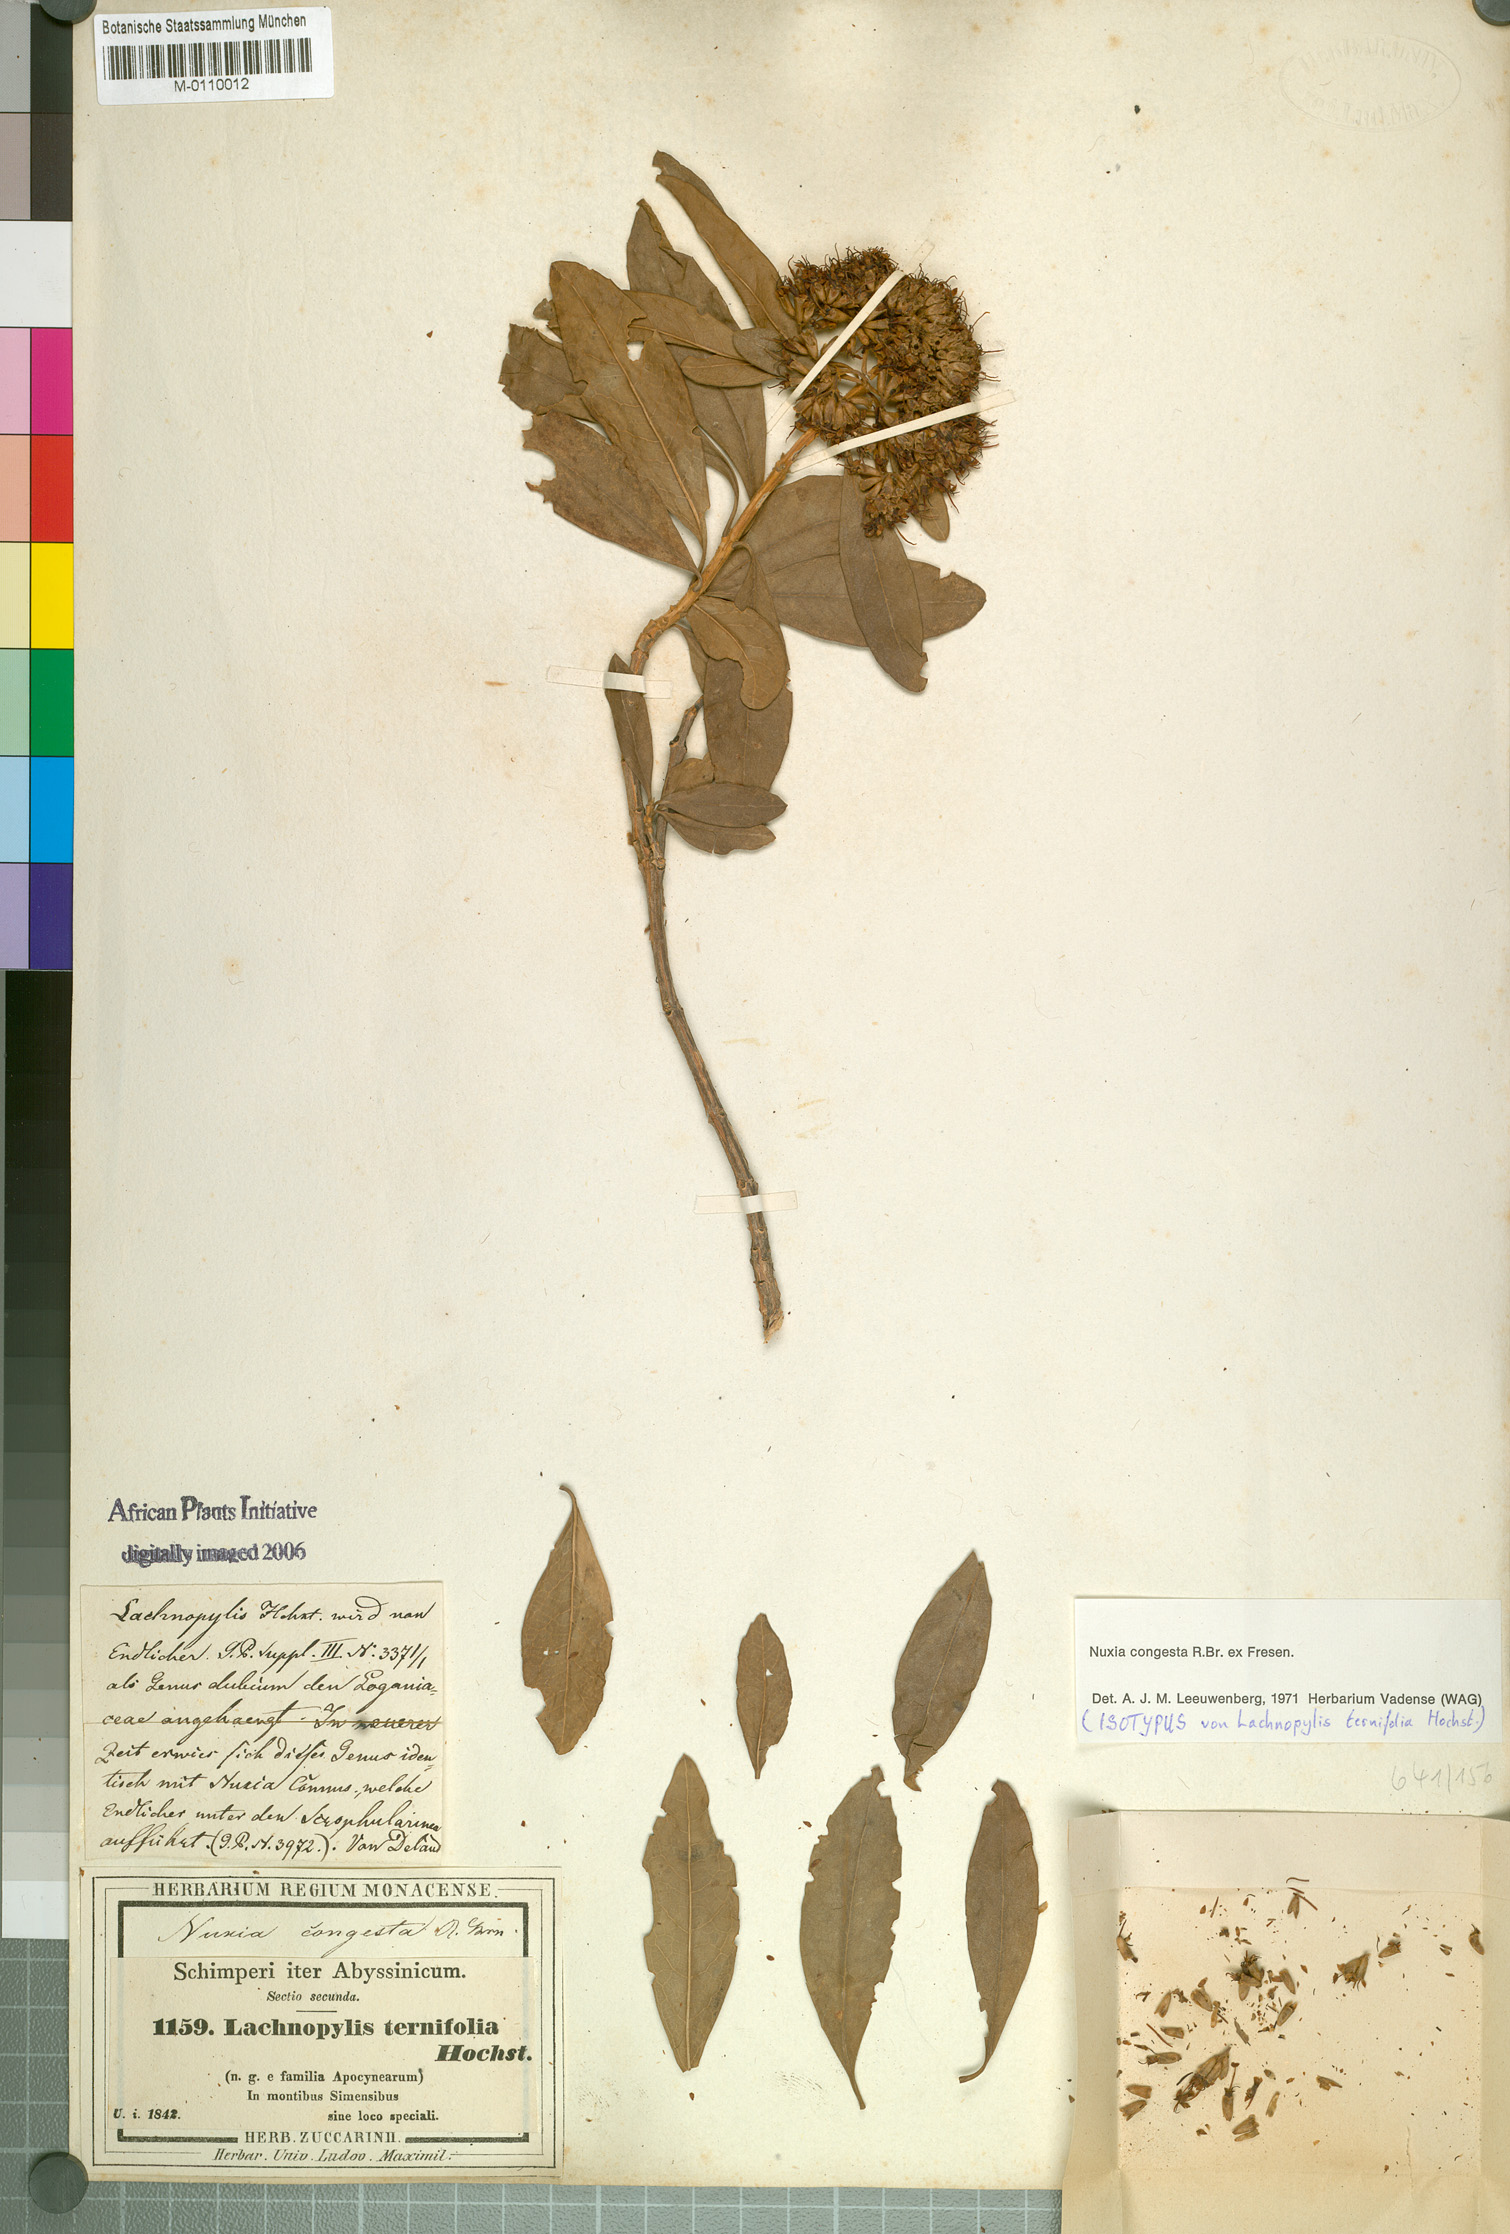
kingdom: Plantae
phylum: Tracheophyta
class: Magnoliopsida
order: Lamiales
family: Stilbaceae
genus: Nuxia
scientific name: Nuxia congesta
